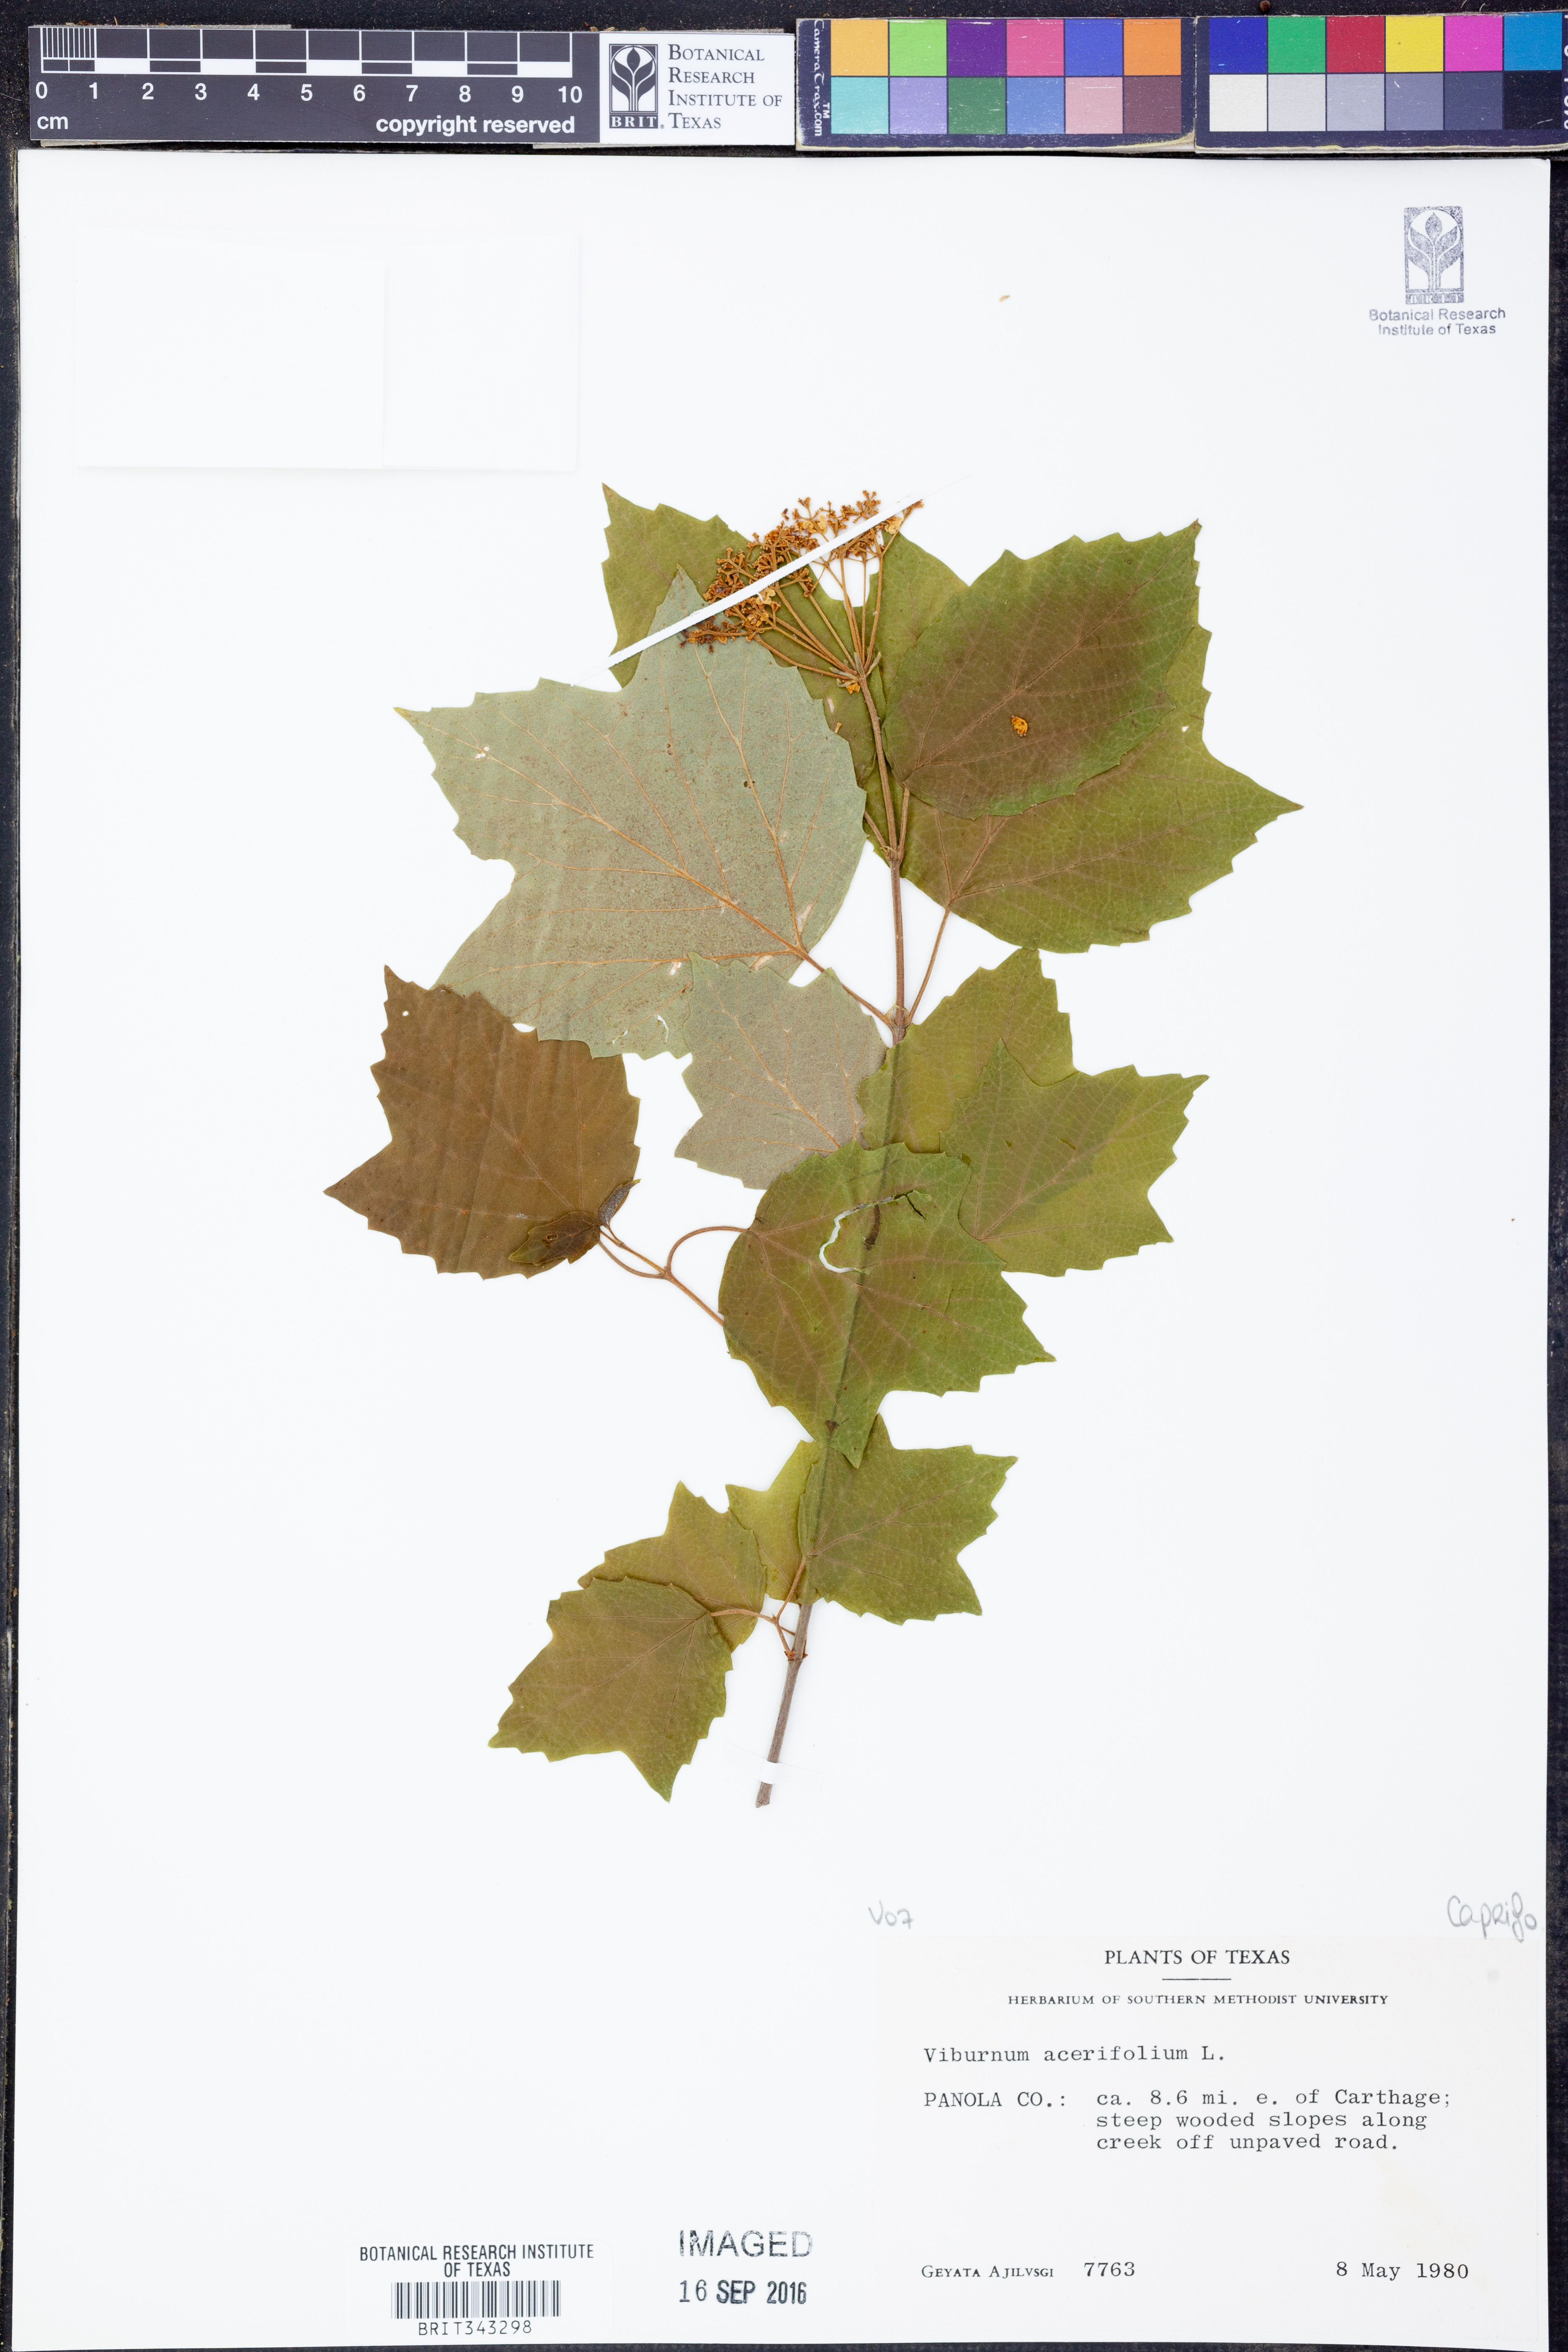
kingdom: Plantae
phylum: Tracheophyta
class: Magnoliopsida
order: Dipsacales
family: Viburnaceae
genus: Viburnum
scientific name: Viburnum acerifolium
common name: Dockmackie
